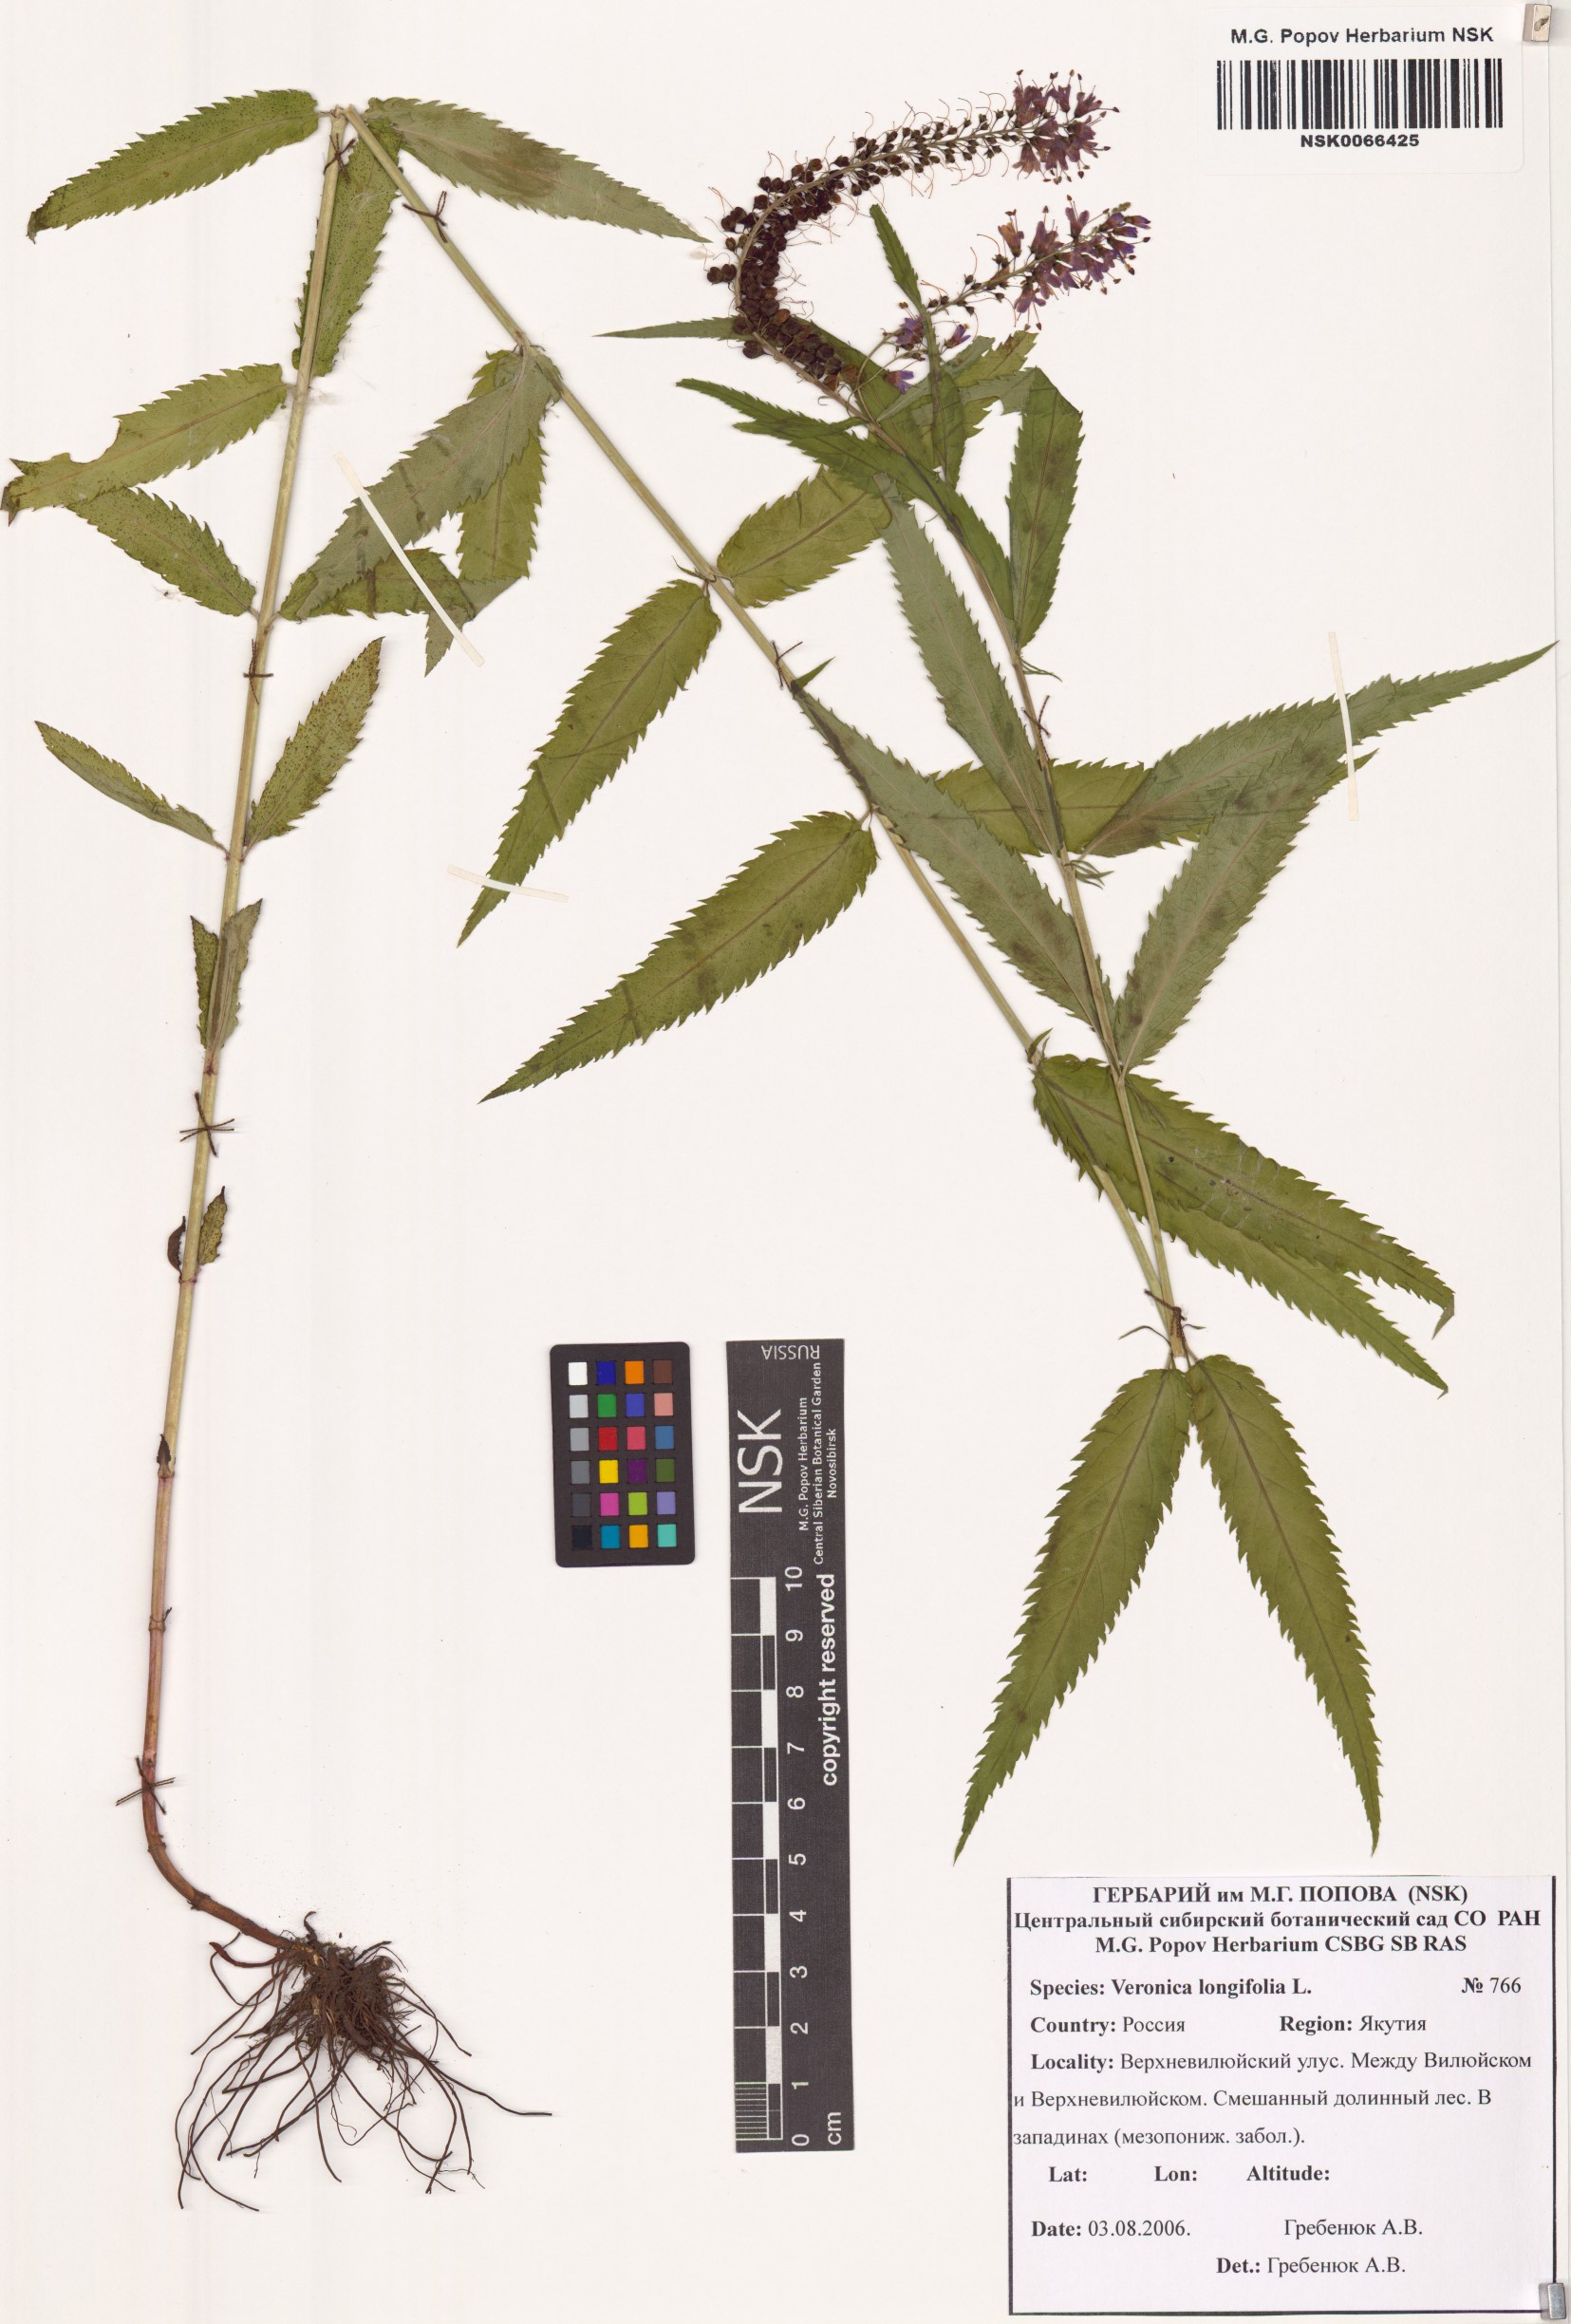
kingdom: Plantae
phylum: Tracheophyta
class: Magnoliopsida
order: Lamiales
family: Plantaginaceae
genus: Veronica
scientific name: Veronica longifolia
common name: Garden speedwell
